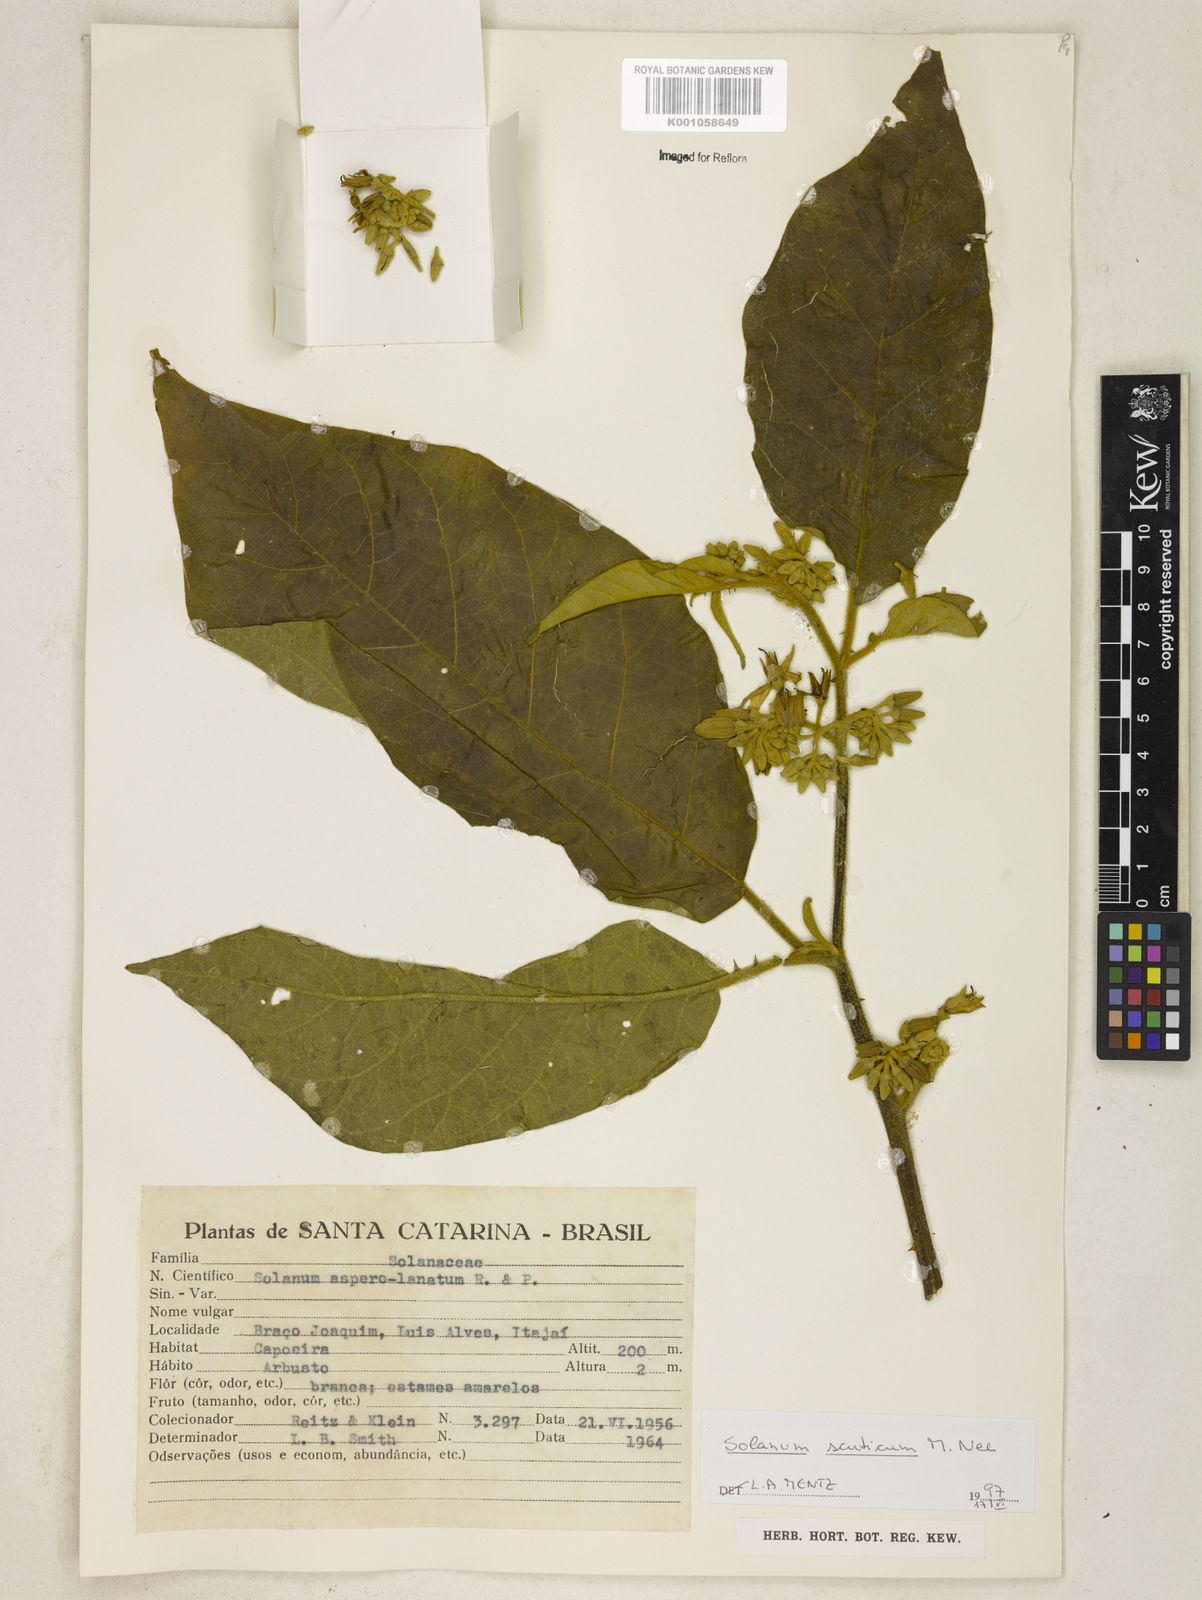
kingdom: Plantae
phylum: Tracheophyta
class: Magnoliopsida
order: Solanales
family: Solanaceae
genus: Solanum
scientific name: Solanum scuticum
